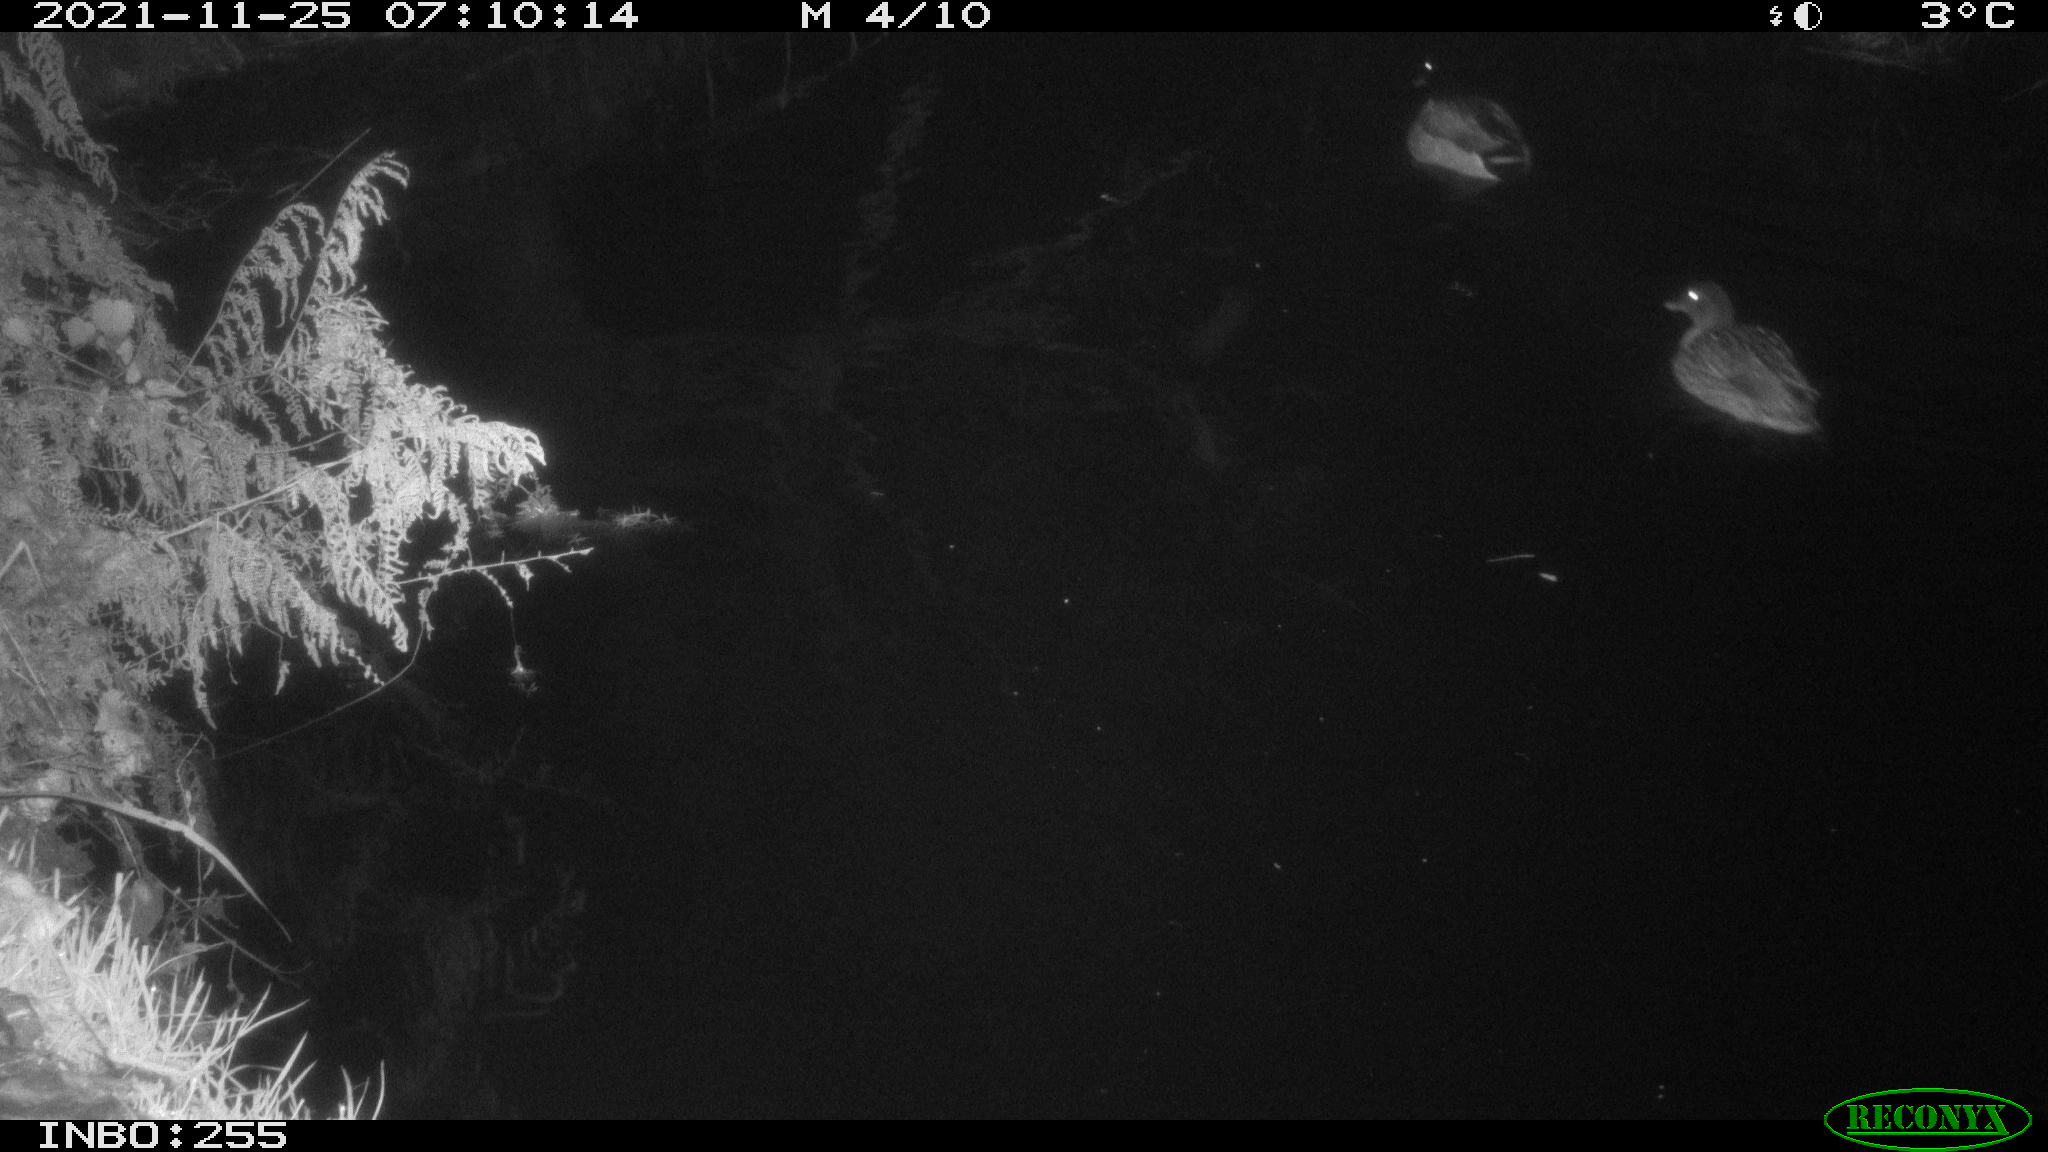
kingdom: Animalia
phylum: Chordata
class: Aves
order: Anseriformes
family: Anatidae
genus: Anas
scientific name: Anas platyrhynchos
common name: Mallard
